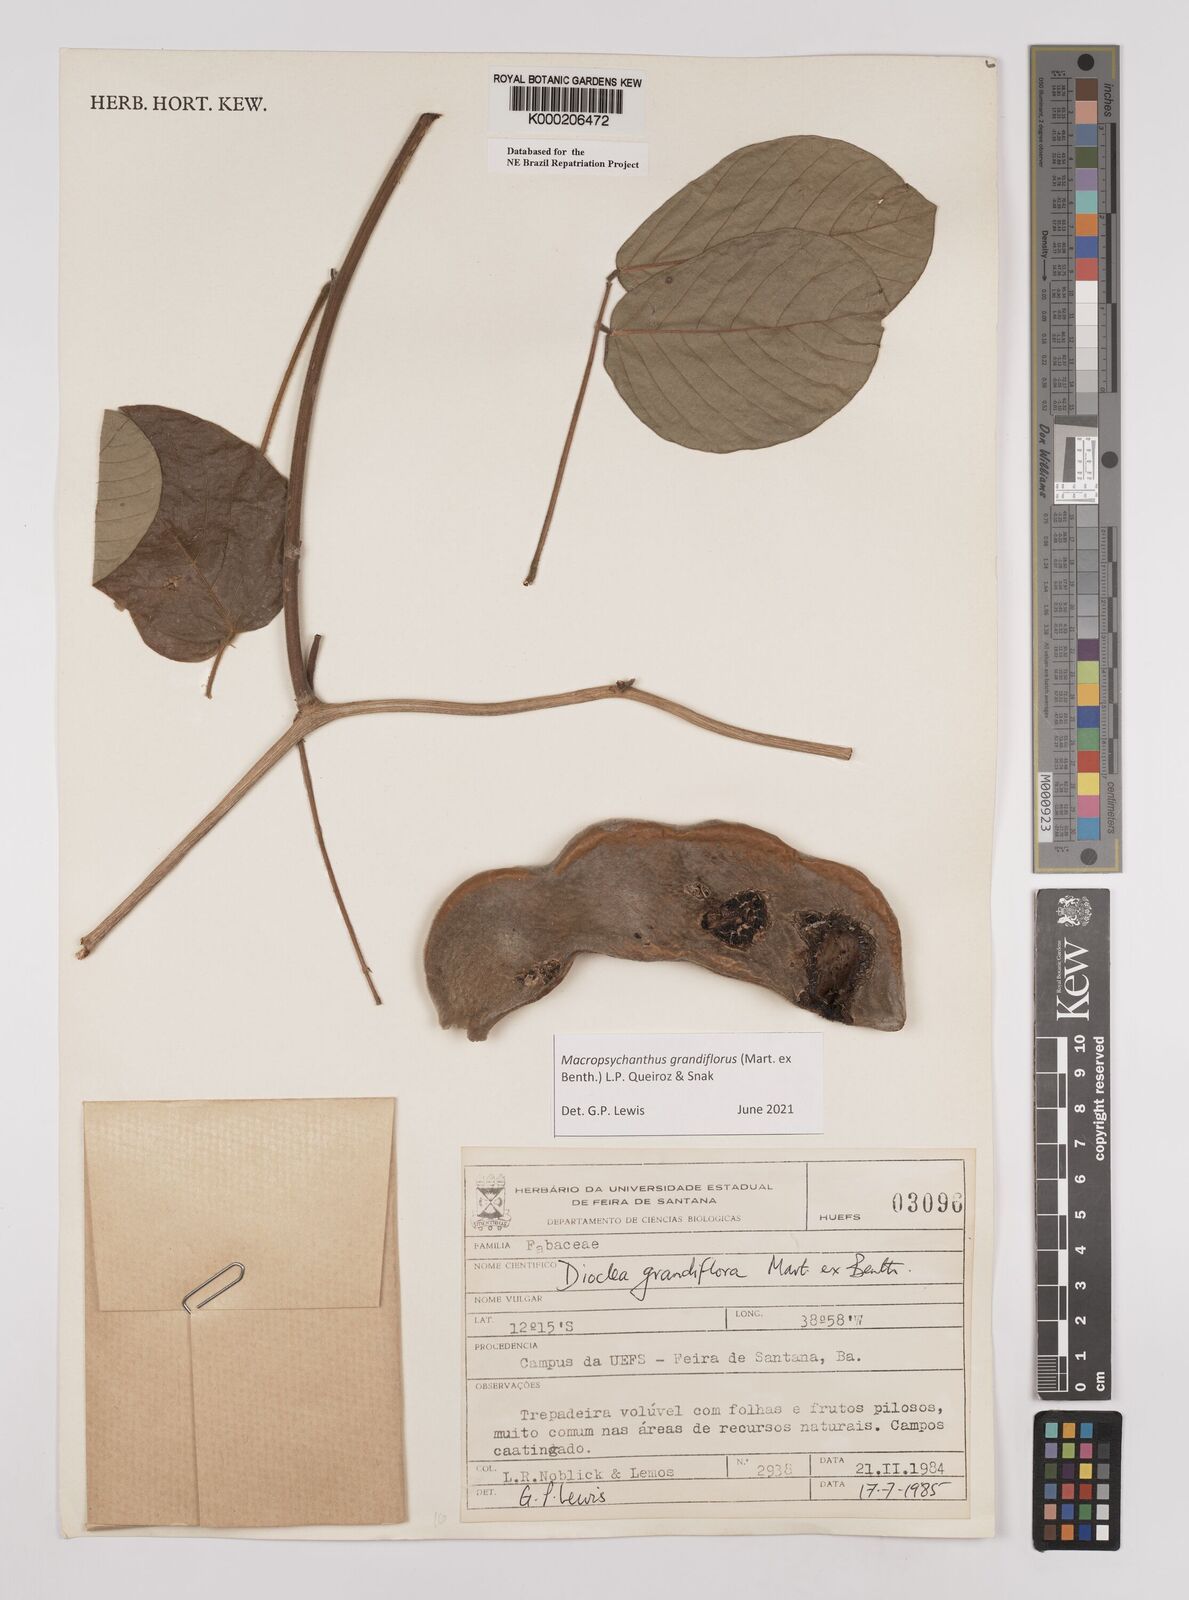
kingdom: Plantae
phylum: Tracheophyta
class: Magnoliopsida
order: Fabales
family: Fabaceae
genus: Macropsychanthus
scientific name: Macropsychanthus grandiflorus
